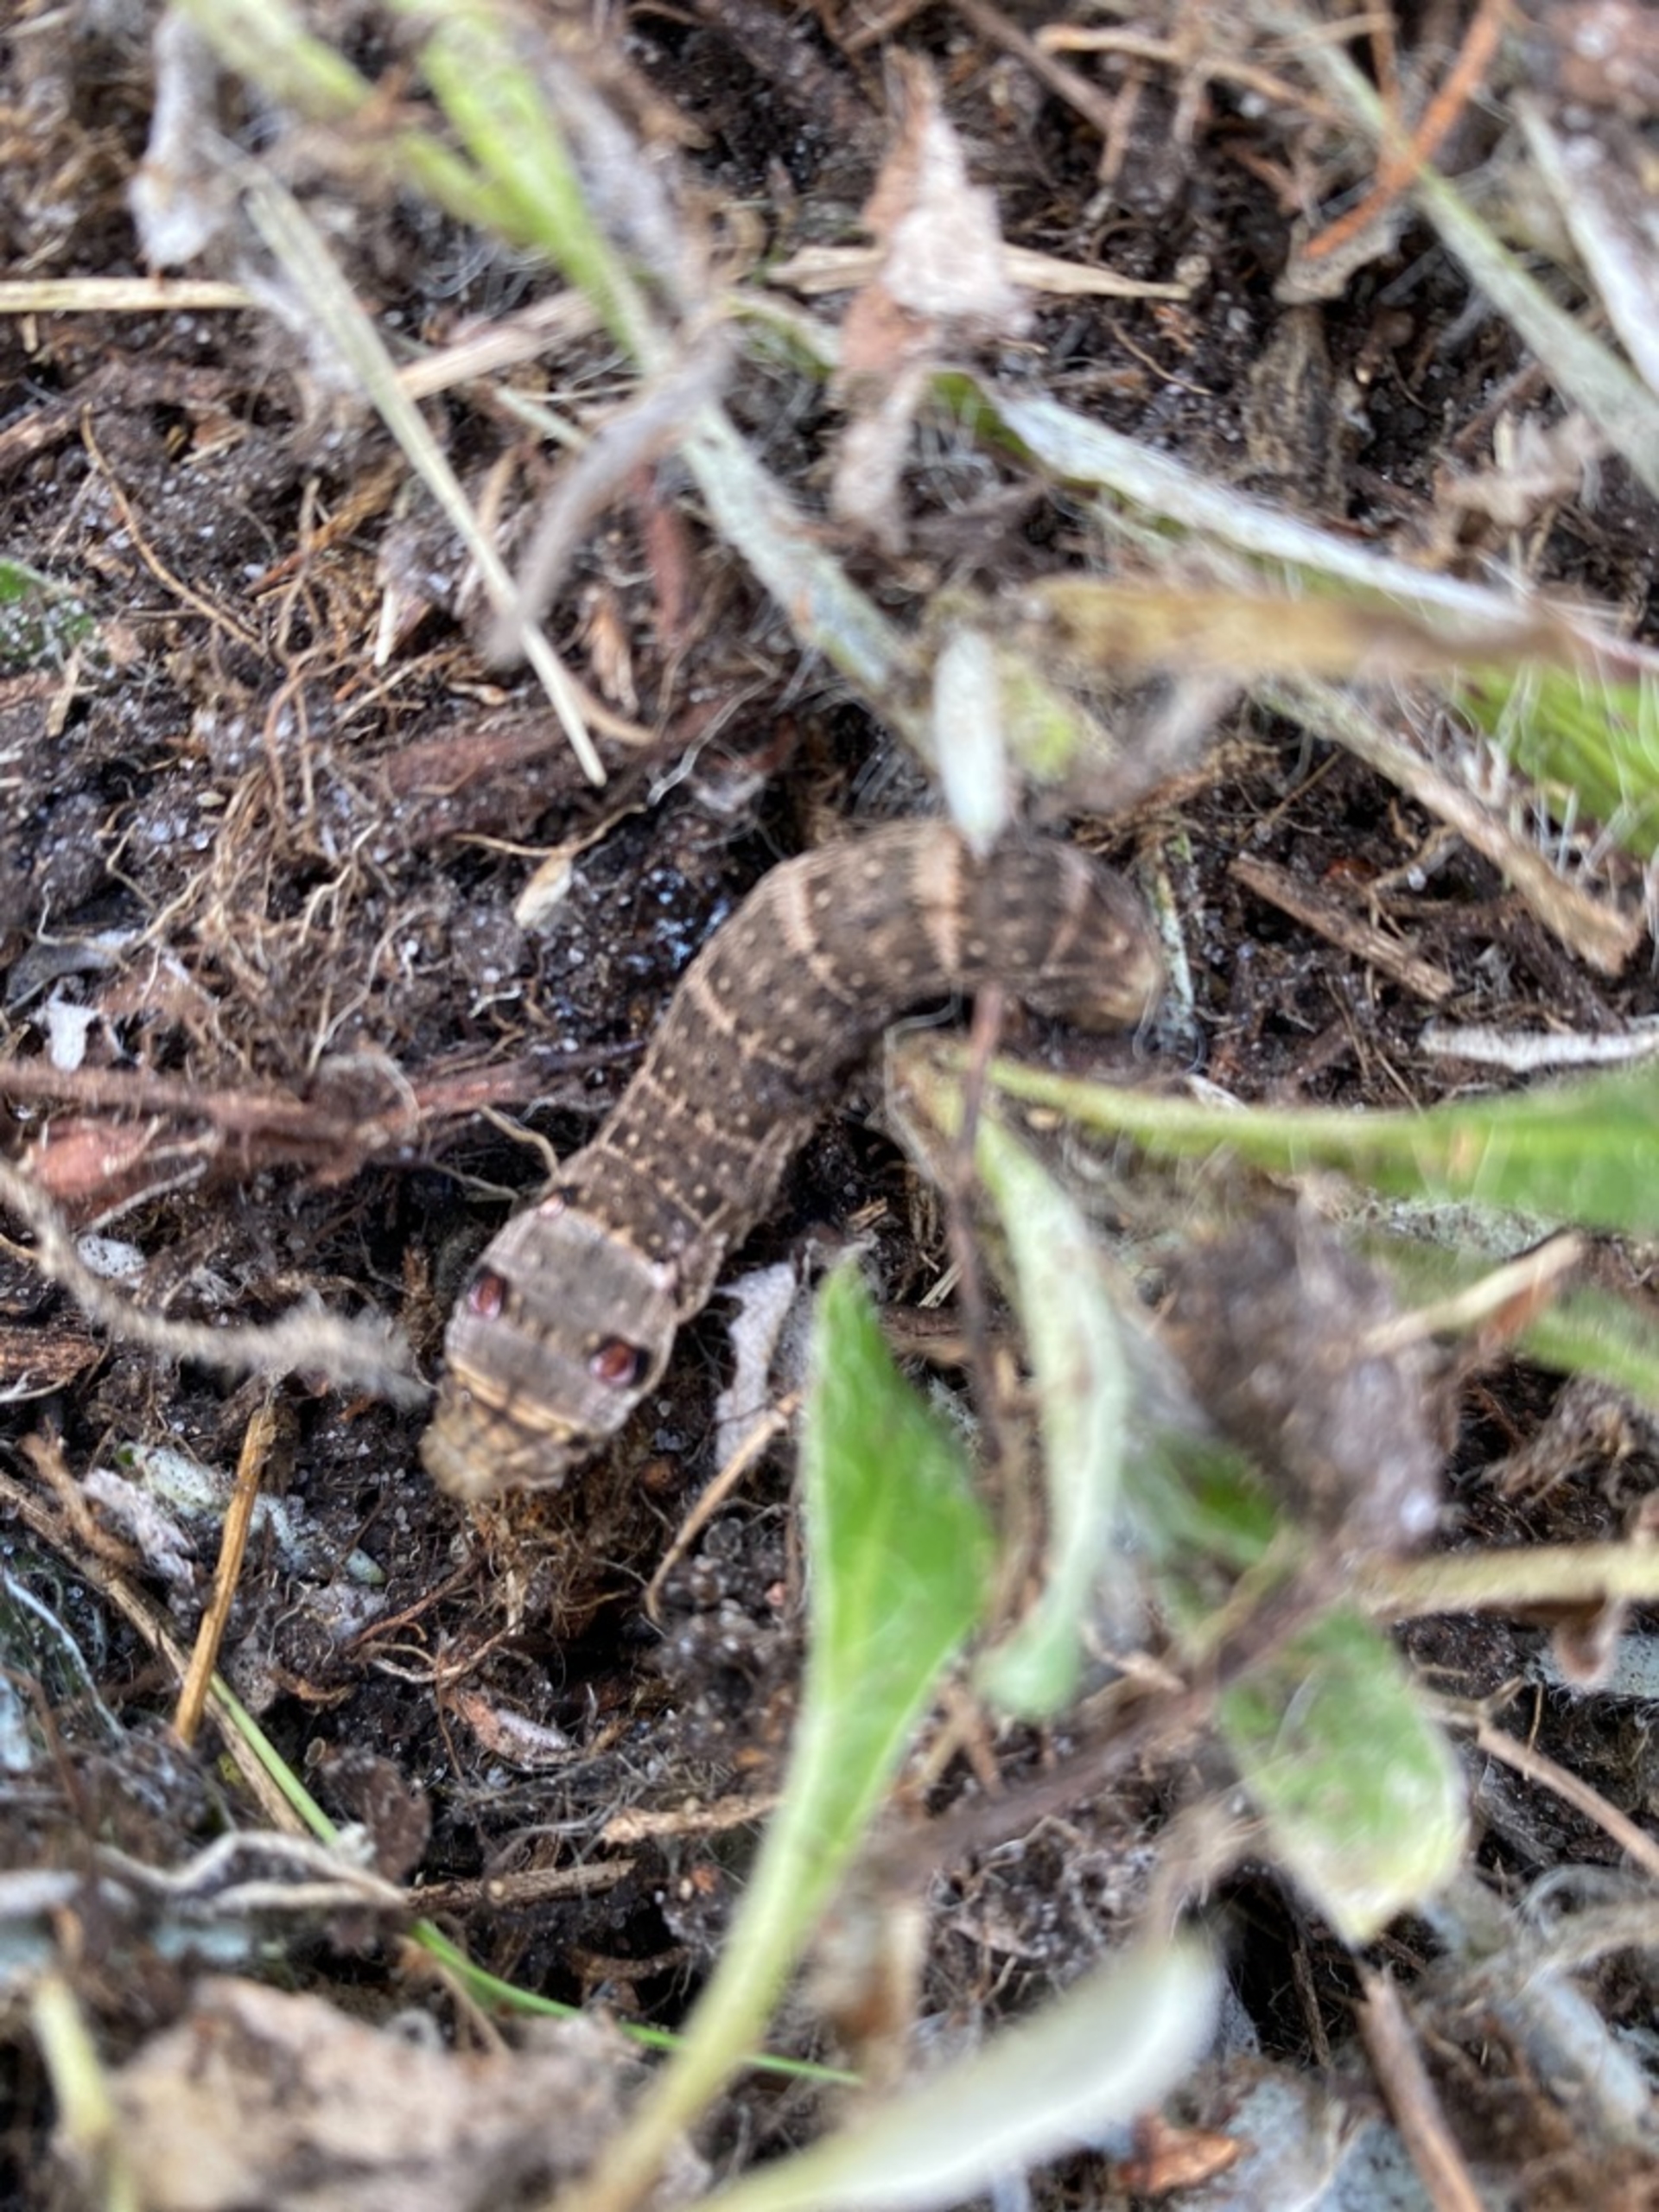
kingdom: Animalia
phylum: Arthropoda
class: Insecta
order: Lepidoptera
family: Sphingidae
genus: Deilephila
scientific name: Deilephila porcellus
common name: Lille vinsværmer
